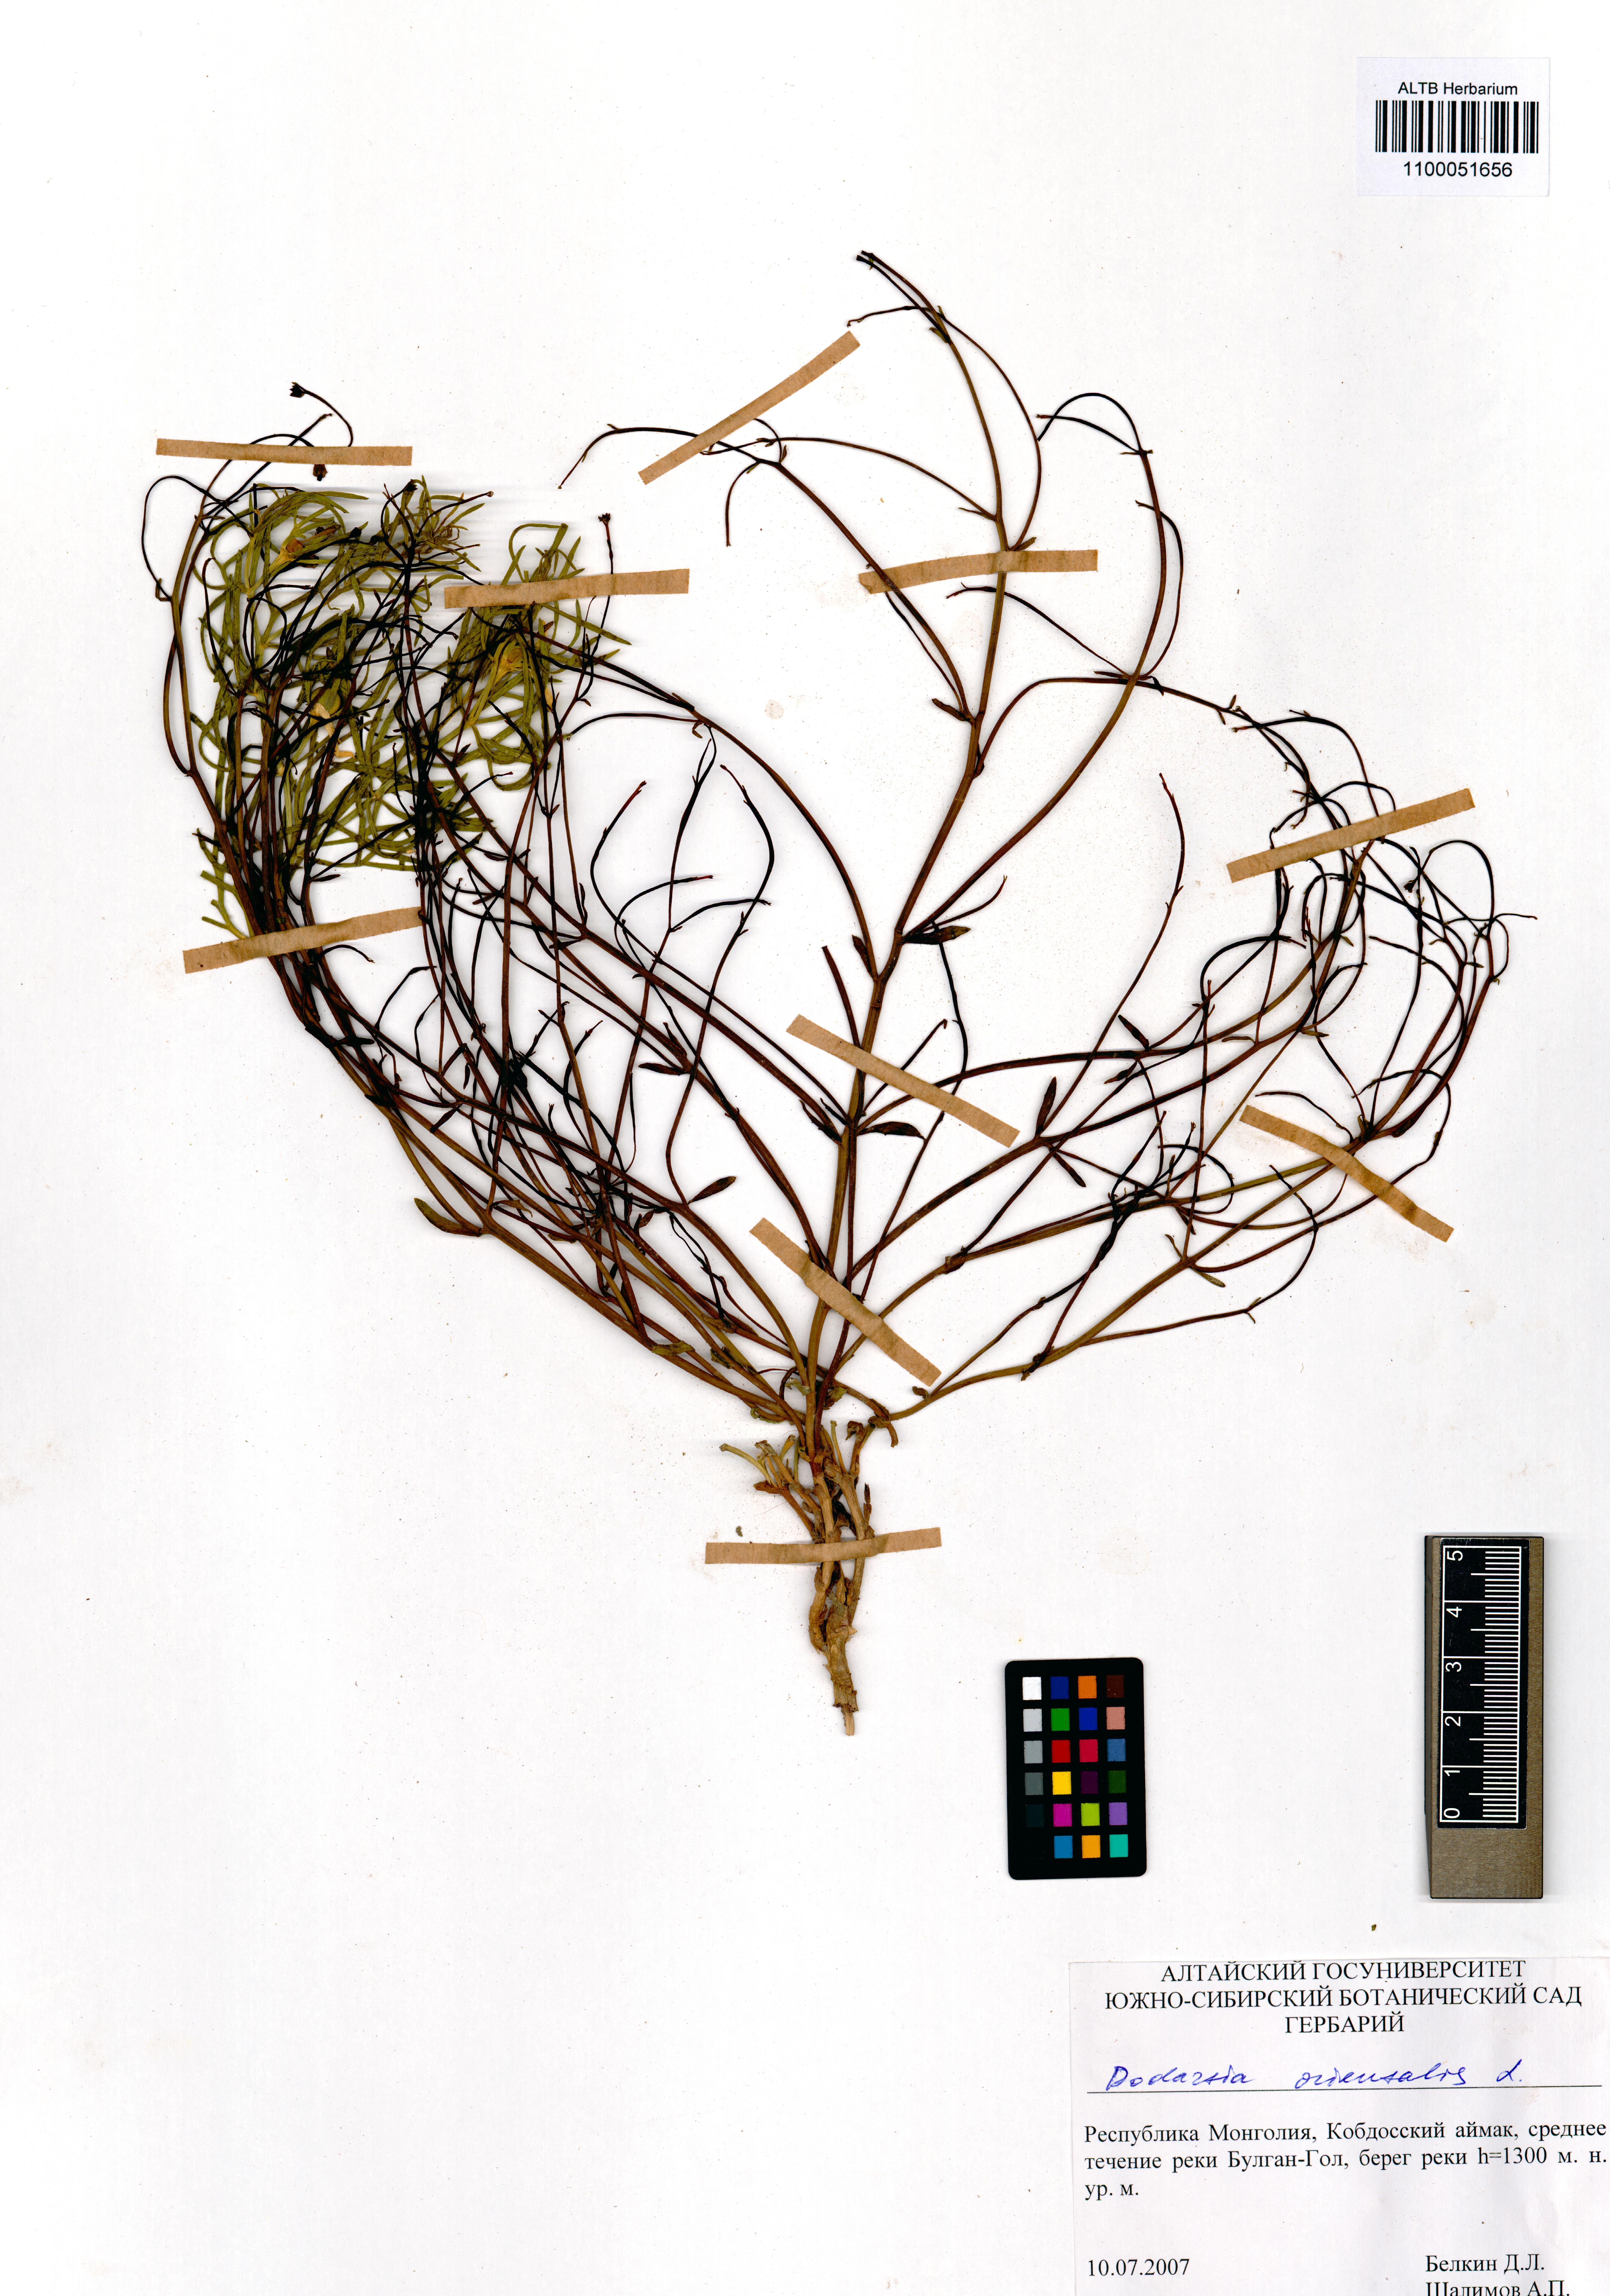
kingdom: Plantae
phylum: Tracheophyta
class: Magnoliopsida
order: Lamiales
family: Mazaceae
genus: Dodartia
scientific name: Dodartia orientalis
